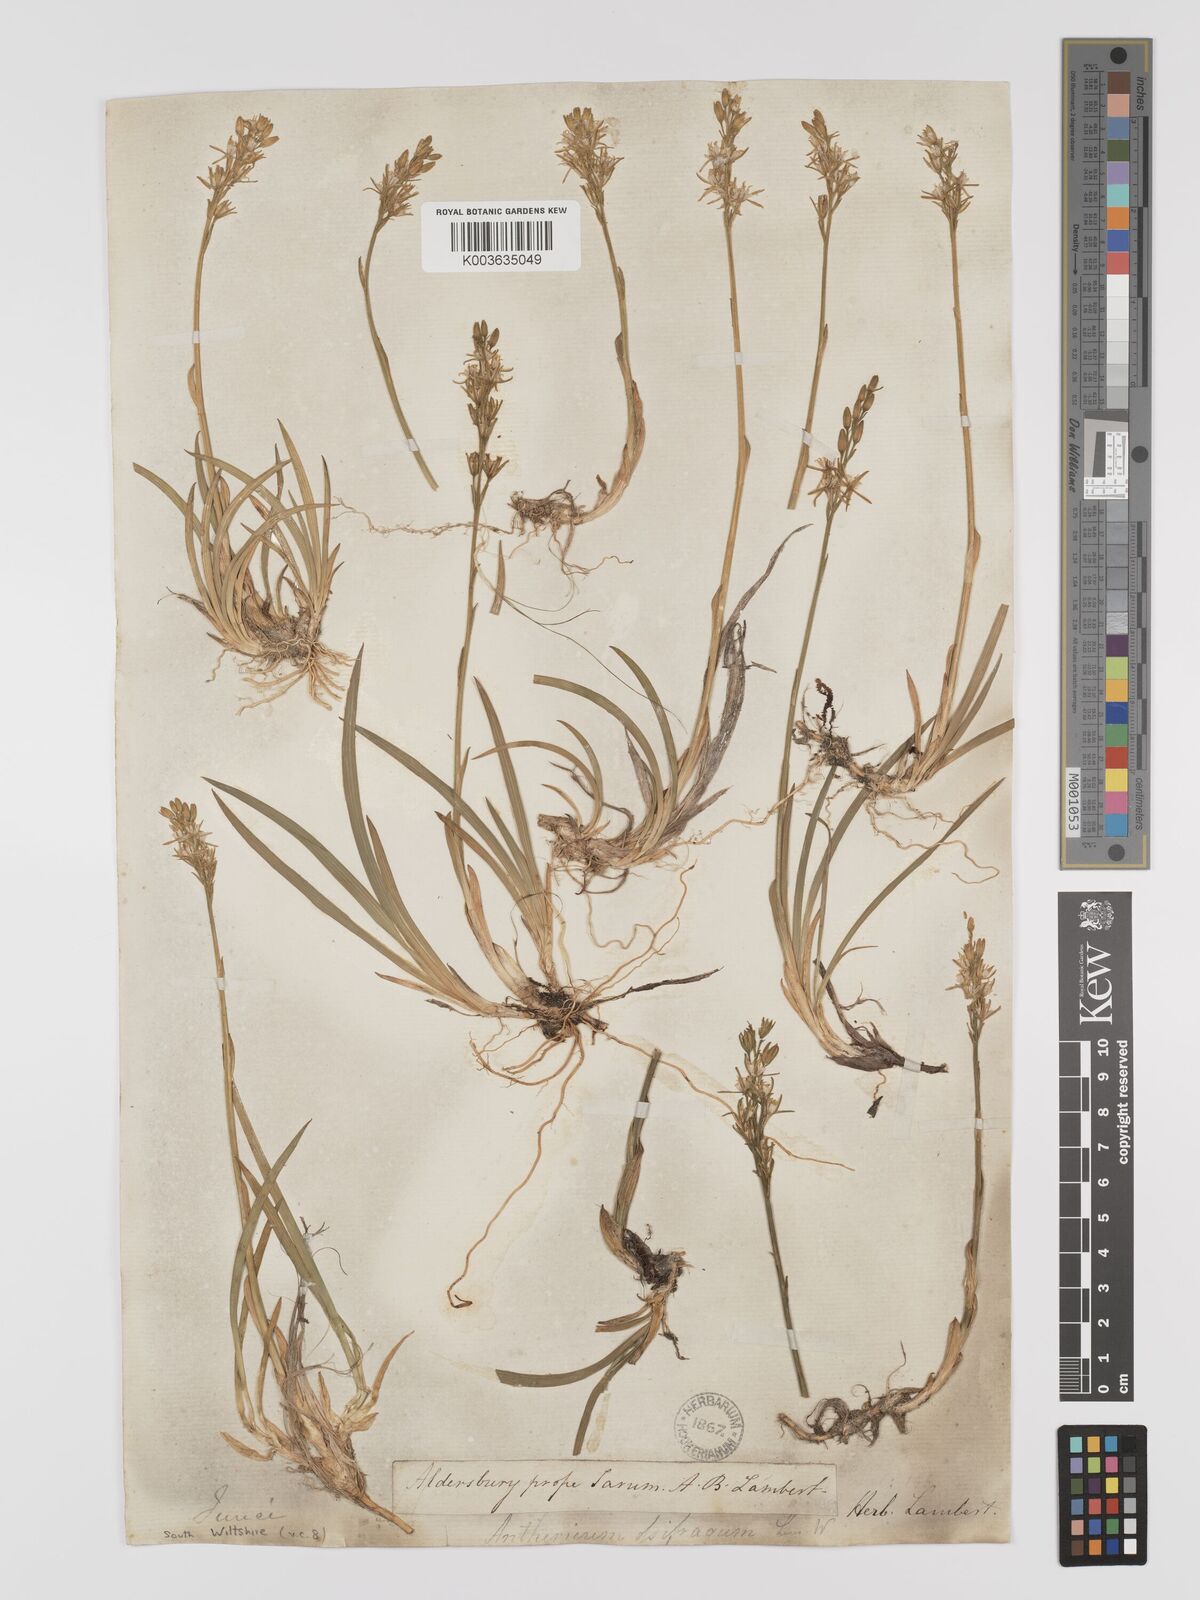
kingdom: Plantae
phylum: Tracheophyta
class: Liliopsida
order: Dioscoreales
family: Nartheciaceae
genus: Narthecium
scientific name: Narthecium
